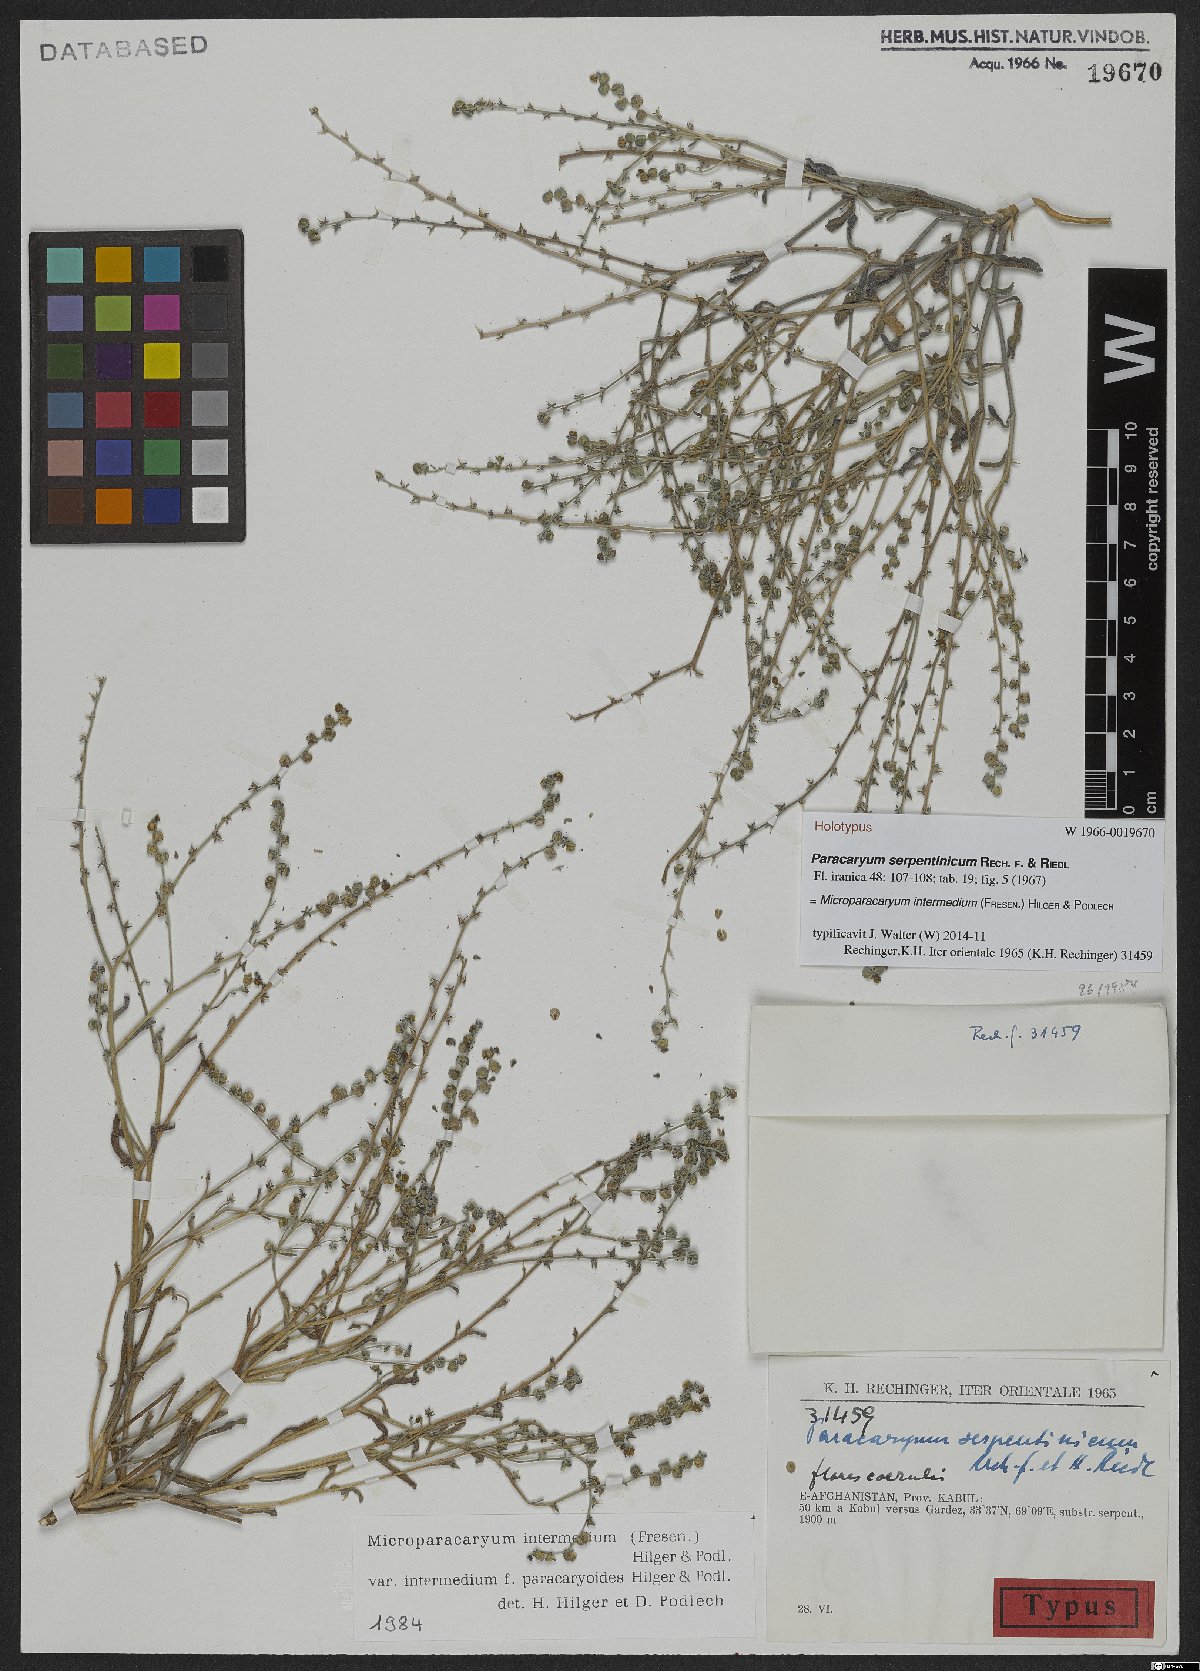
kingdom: Plantae
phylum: Tracheophyta
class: Magnoliopsida
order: Boraginales
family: Boraginaceae
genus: Microparacaryum
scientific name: Microparacaryum intermedium
